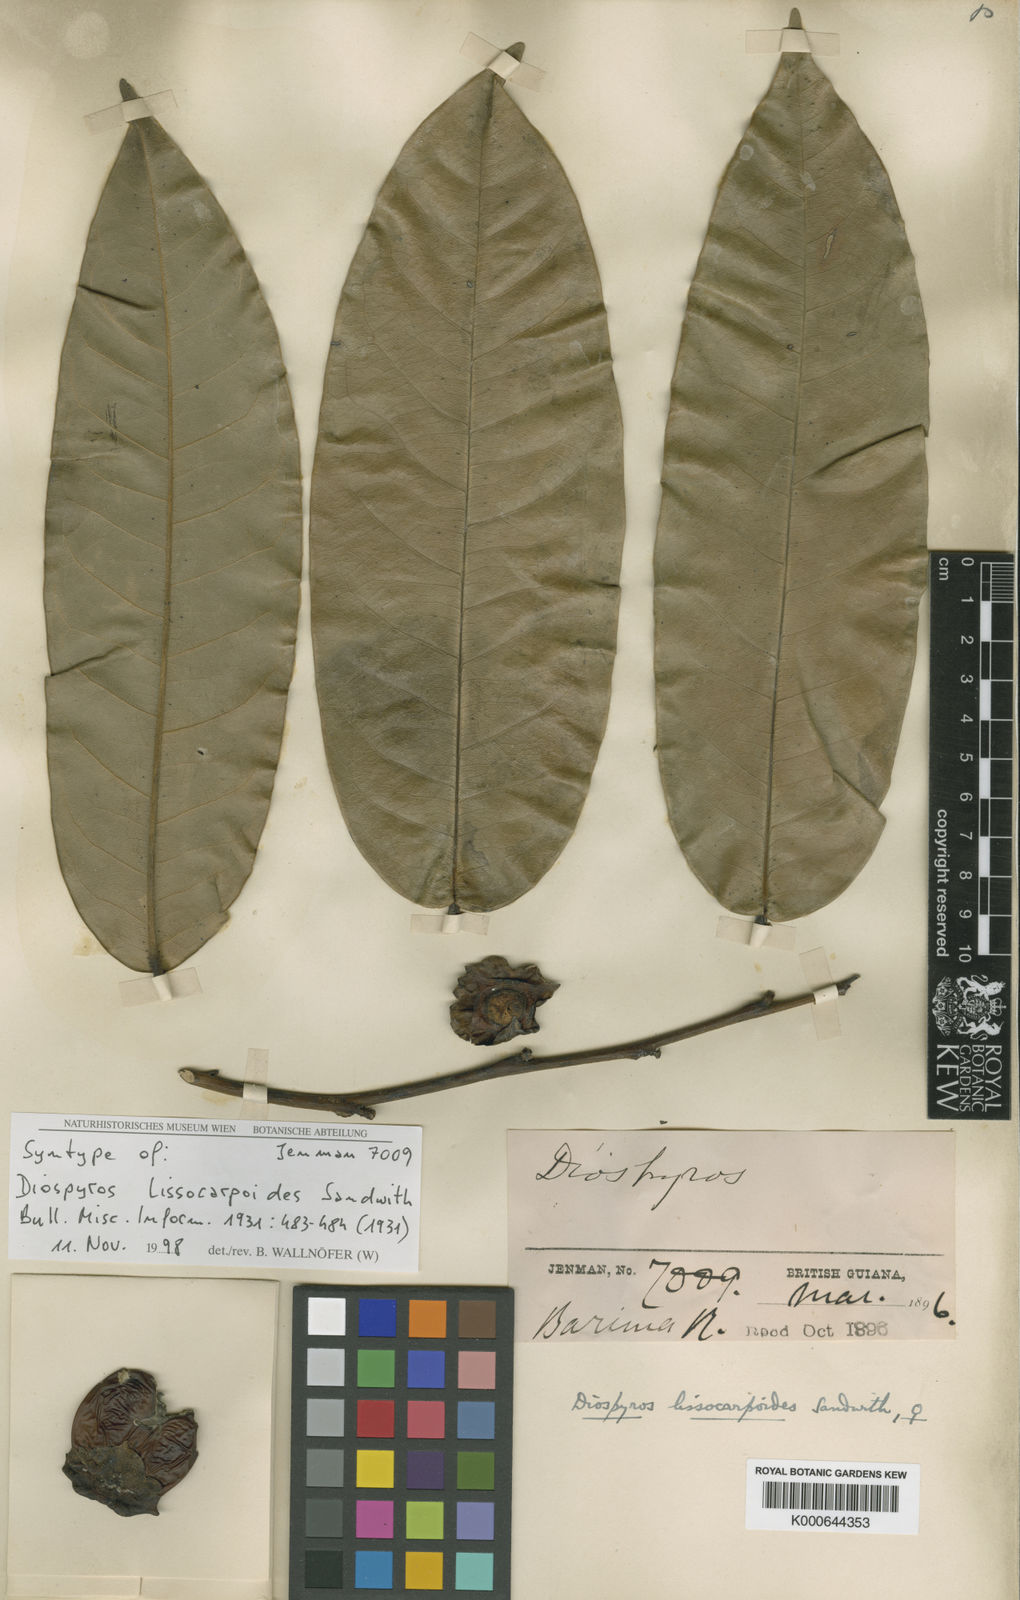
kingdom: Plantae
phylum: Tracheophyta
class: Magnoliopsida
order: Ericales
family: Ebenaceae
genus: Diospyros
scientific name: Diospyros lissocarpoides
